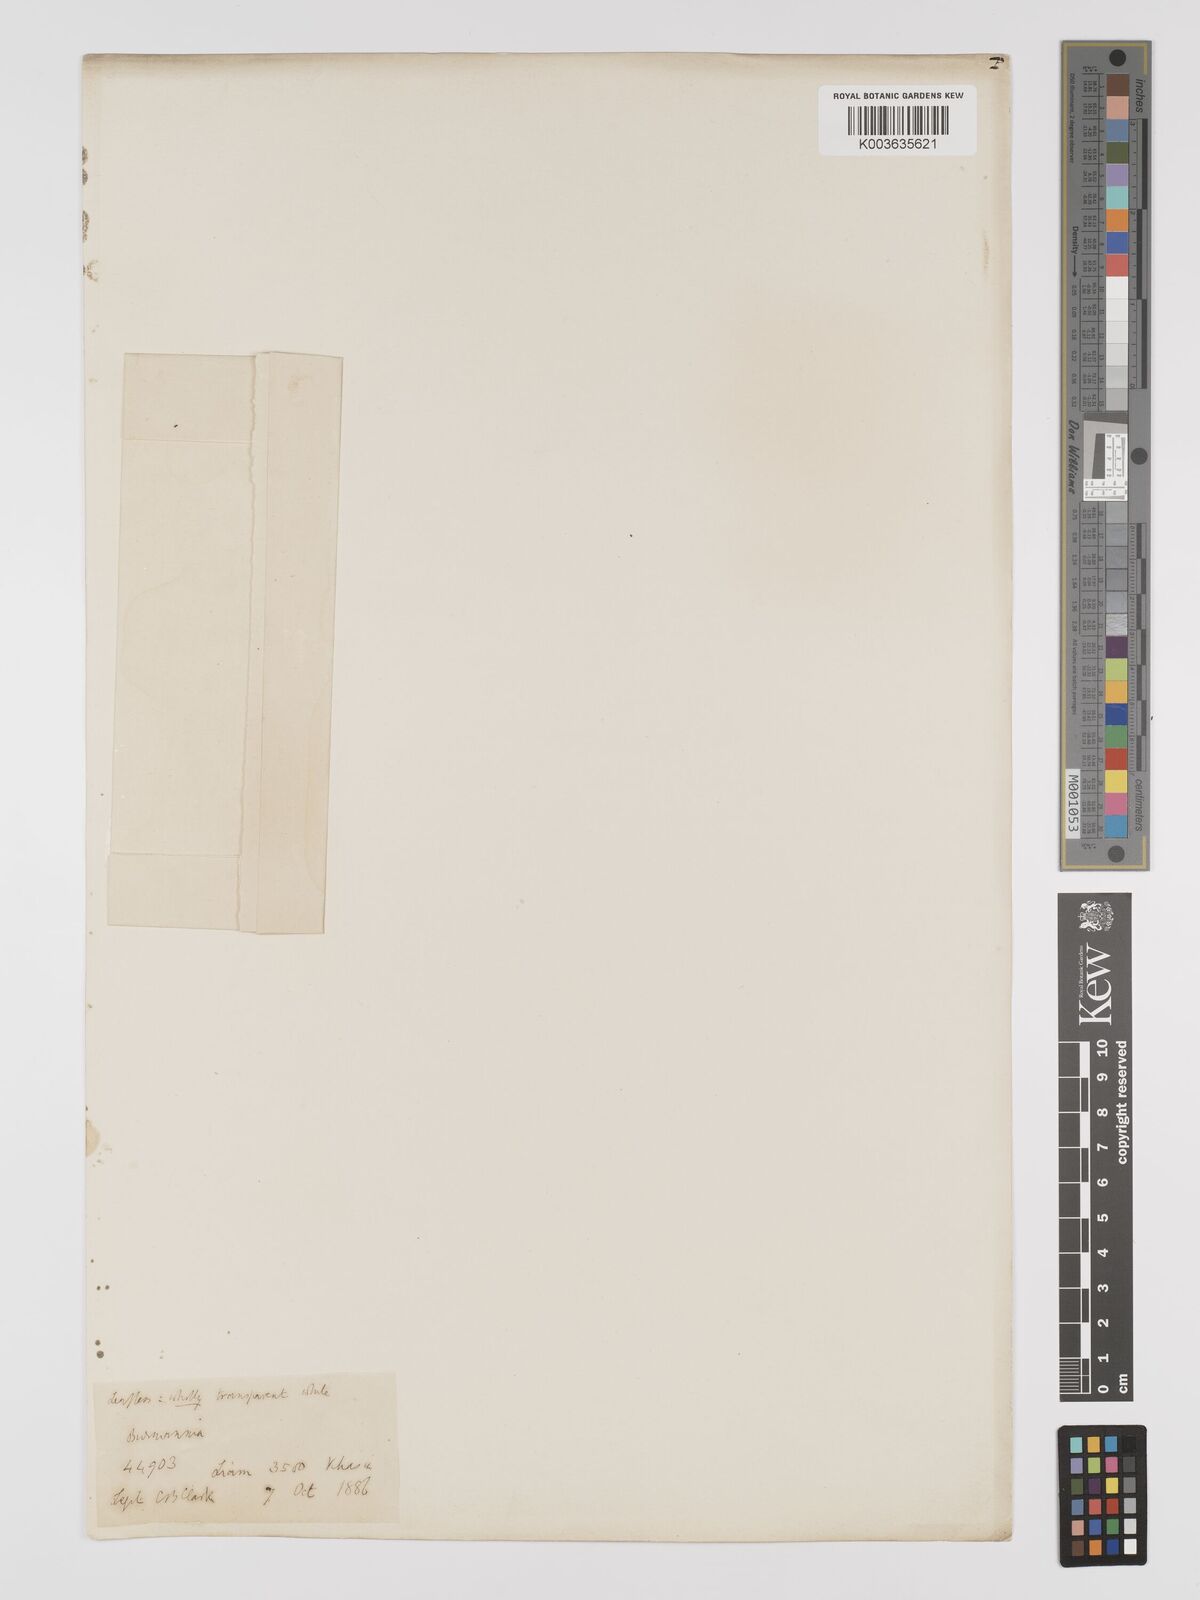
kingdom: Plantae
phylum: Tracheophyta
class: Liliopsida
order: Dioscoreales
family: Burmanniaceae
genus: Burmannia
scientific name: Burmannia nepalensis
